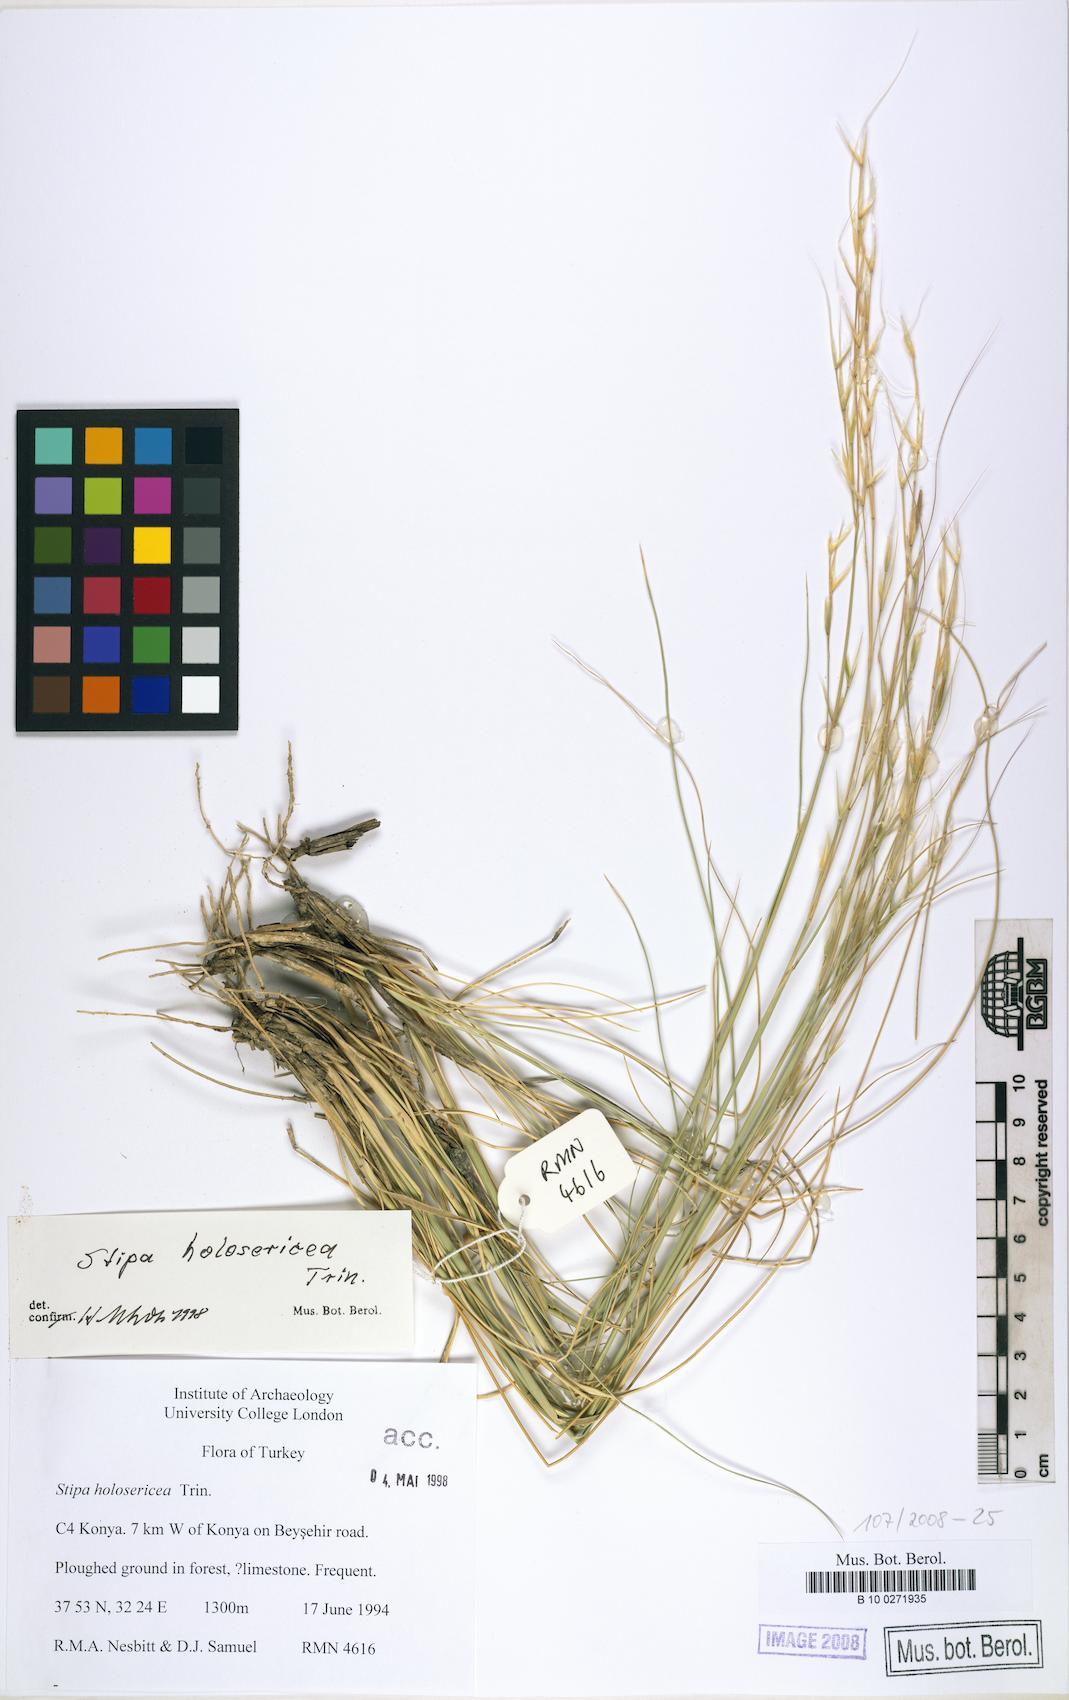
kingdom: Plantae
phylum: Tracheophyta
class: Liliopsida
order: Poales
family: Poaceae
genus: Stipa
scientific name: Stipa holosericea
